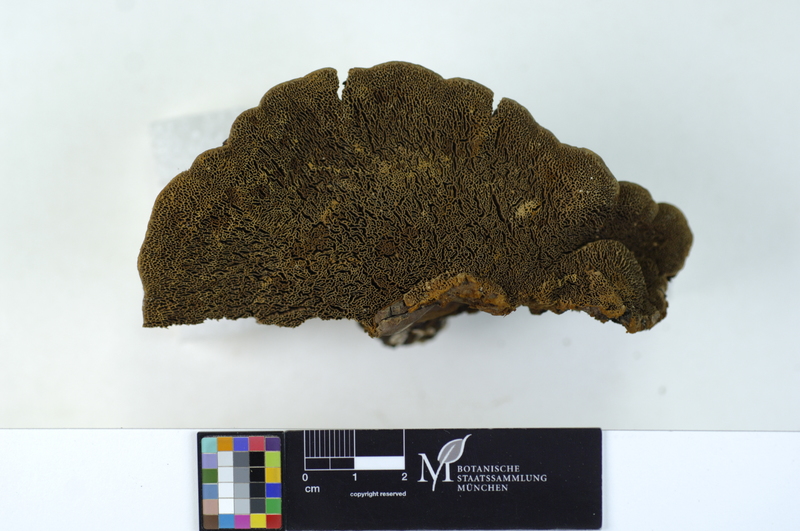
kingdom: Fungi
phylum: Basidiomycota
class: Agaricomycetes
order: Hymenochaetales
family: Hymenochaetaceae
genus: Porodaedalea
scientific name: Porodaedalea pini
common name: Pine bracket
